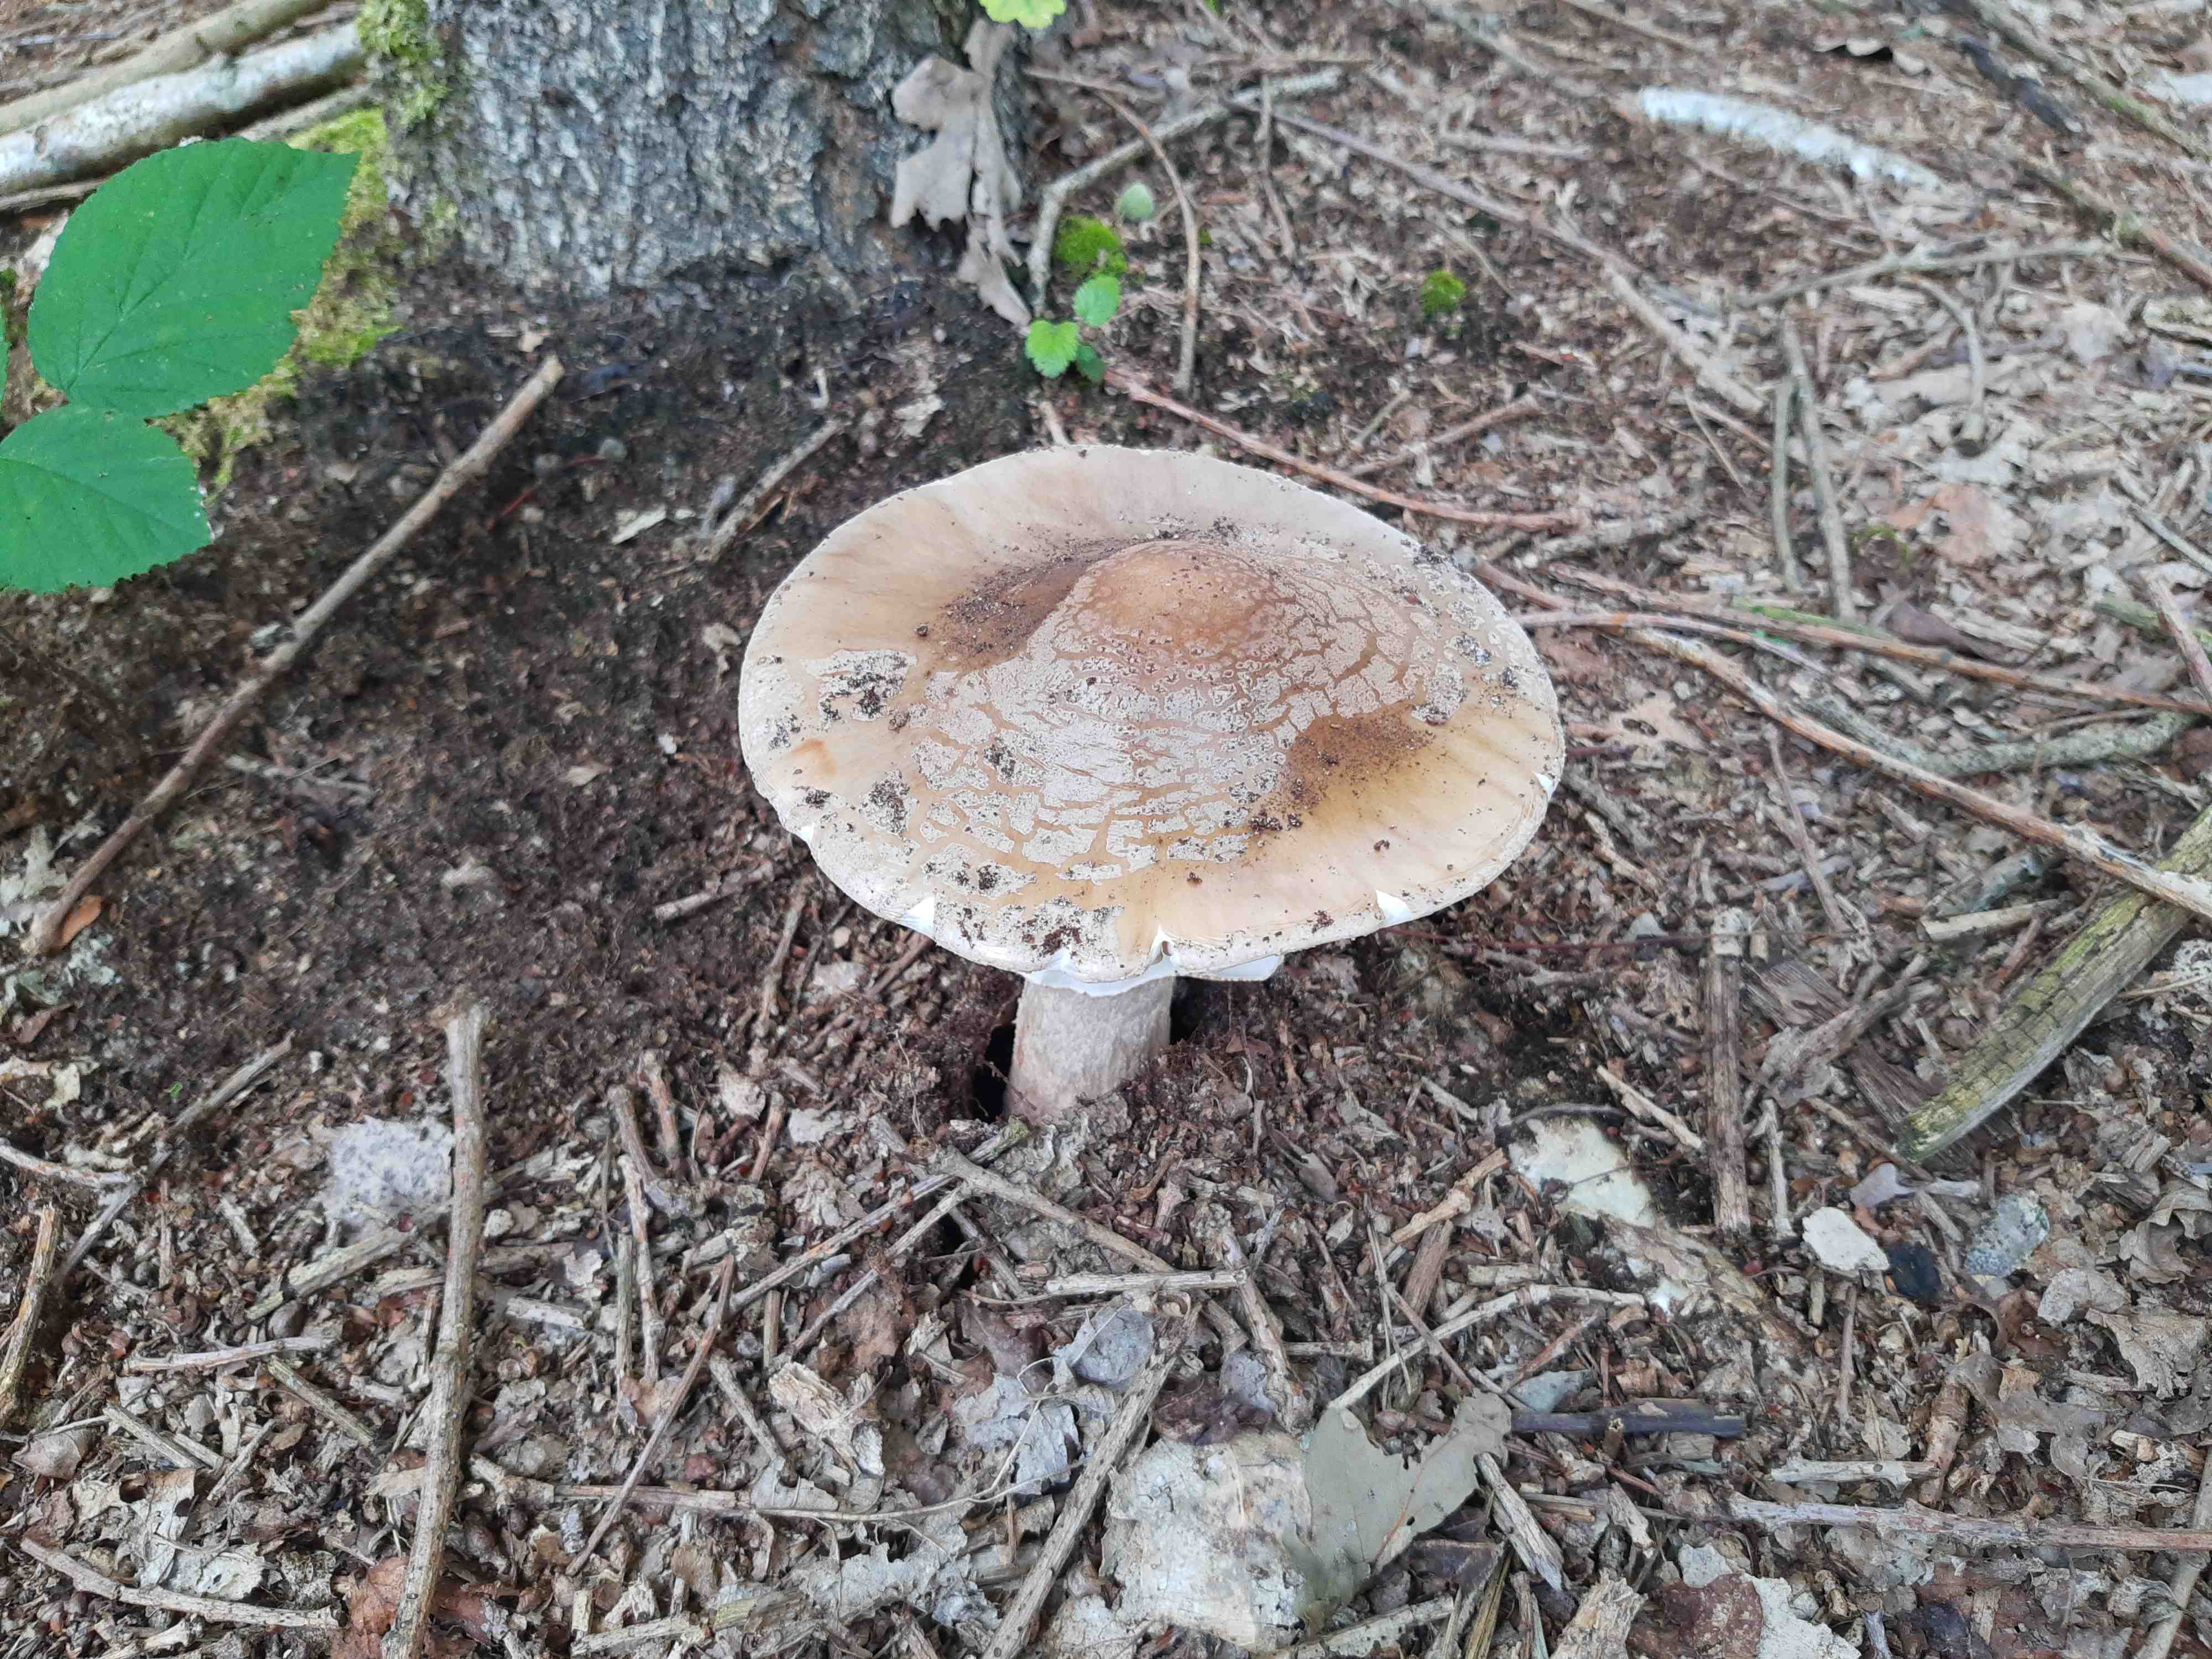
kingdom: Fungi
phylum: Basidiomycota
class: Agaricomycetes
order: Agaricales
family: Amanitaceae
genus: Amanita
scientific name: Amanita rubescens
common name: rødmende fluesvamp
